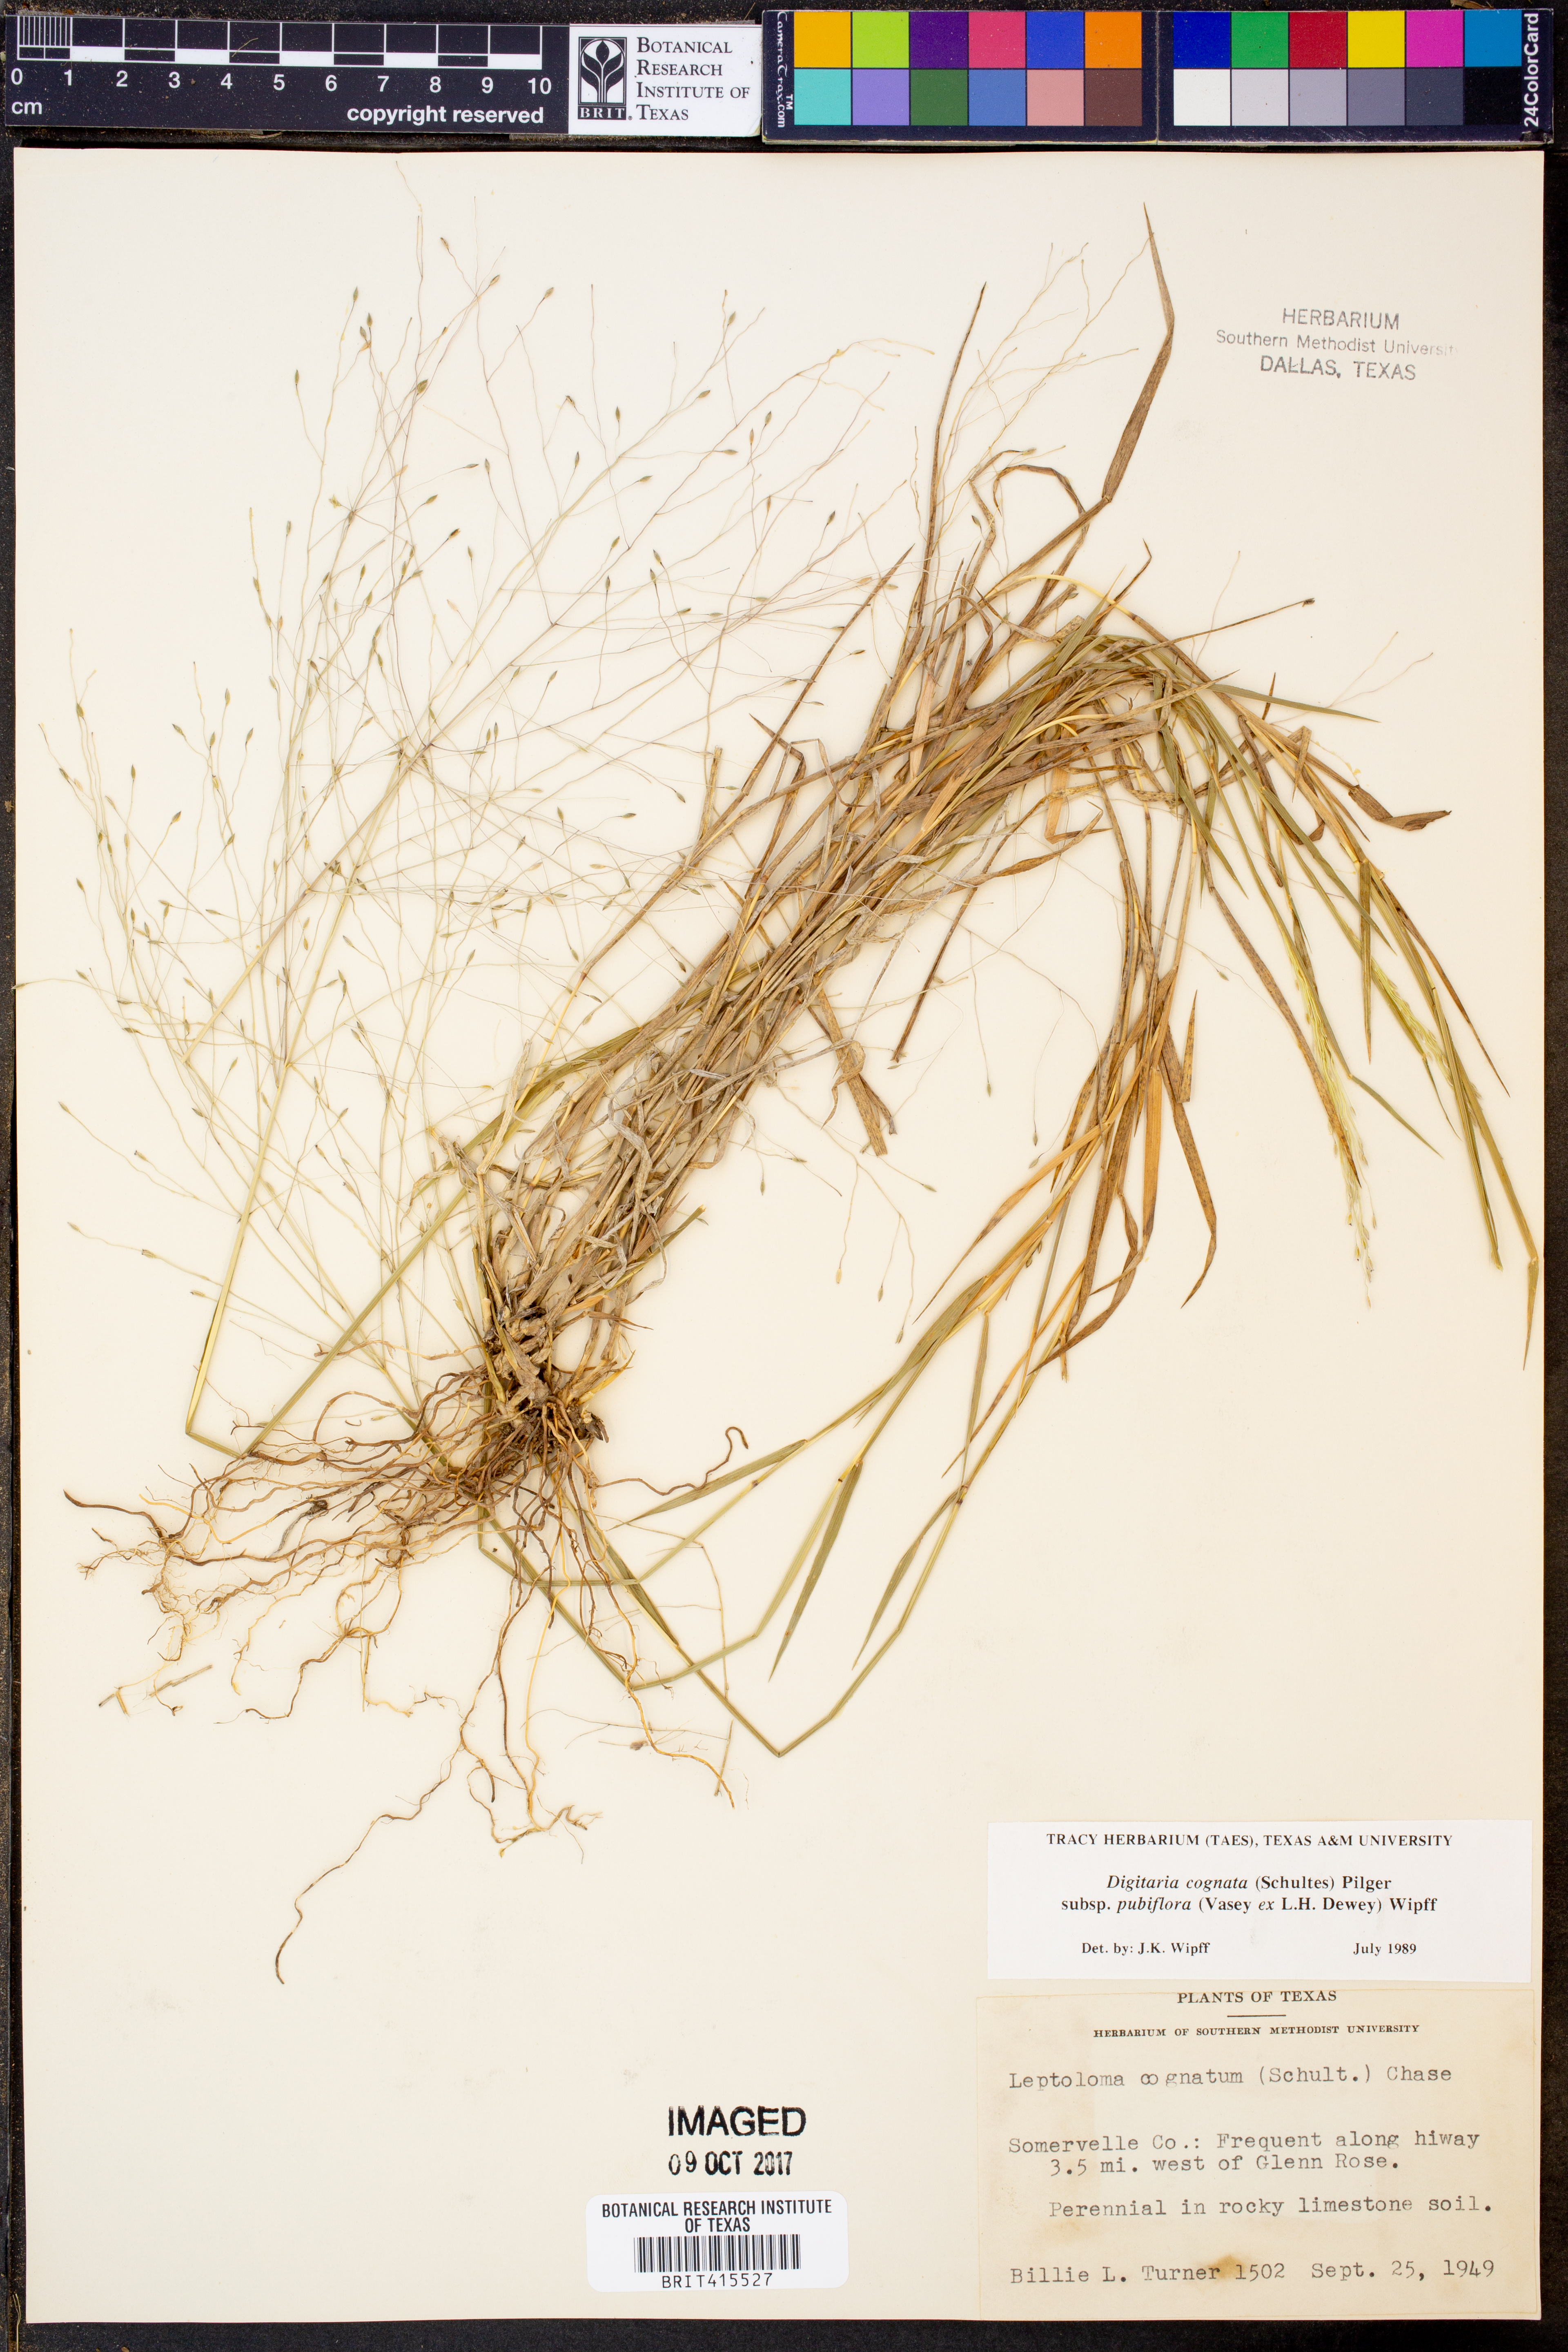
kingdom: Plantae
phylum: Tracheophyta
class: Liliopsida
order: Poales
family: Poaceae
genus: Digitaria
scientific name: Digitaria cognata
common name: Fall witchgrass
